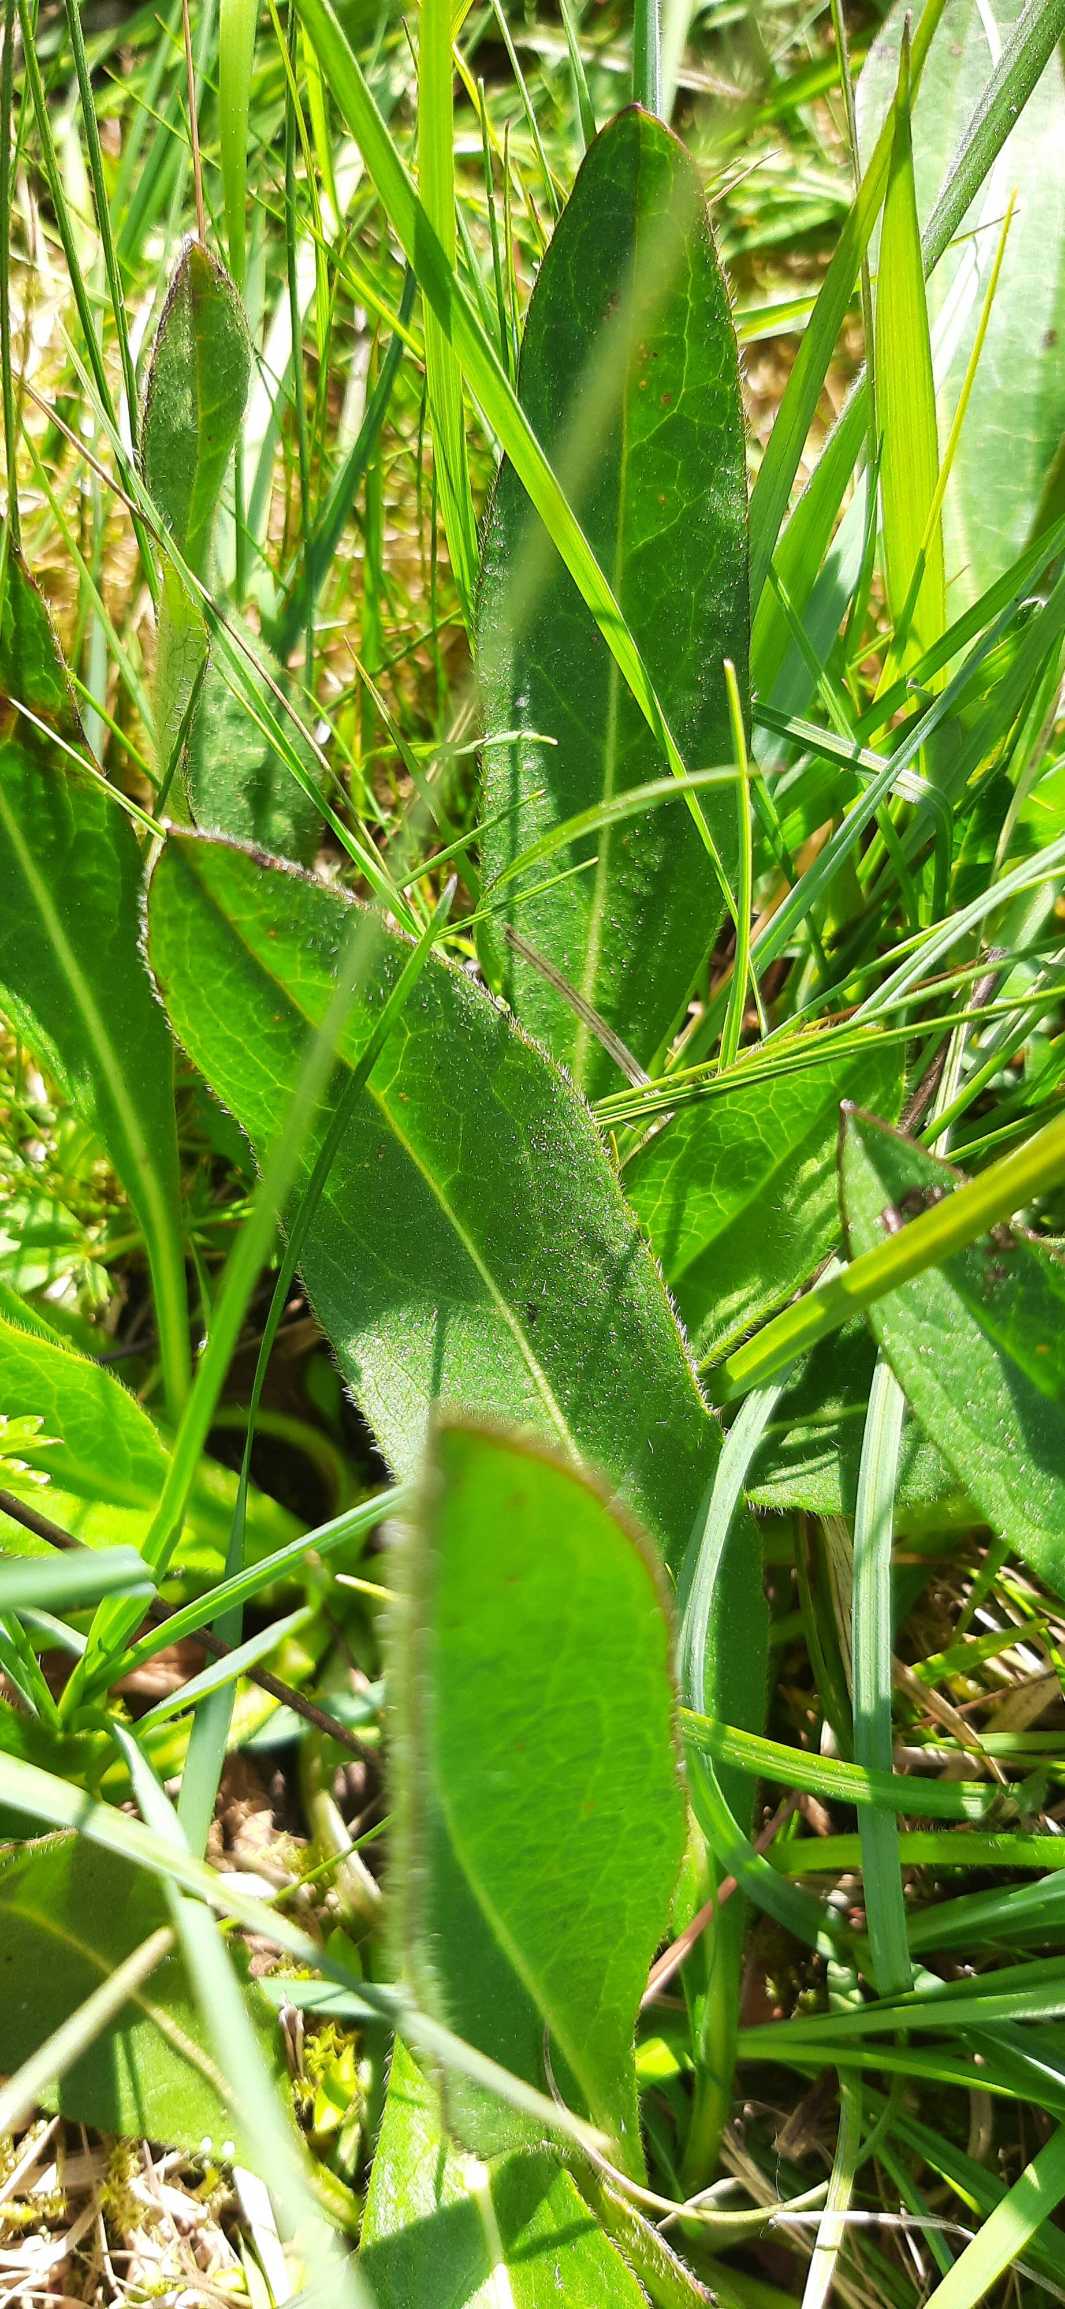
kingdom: Plantae
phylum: Tracheophyta
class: Magnoliopsida
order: Dipsacales
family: Caprifoliaceae
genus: Succisa
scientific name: Succisa pratensis
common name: Djævelsbid
